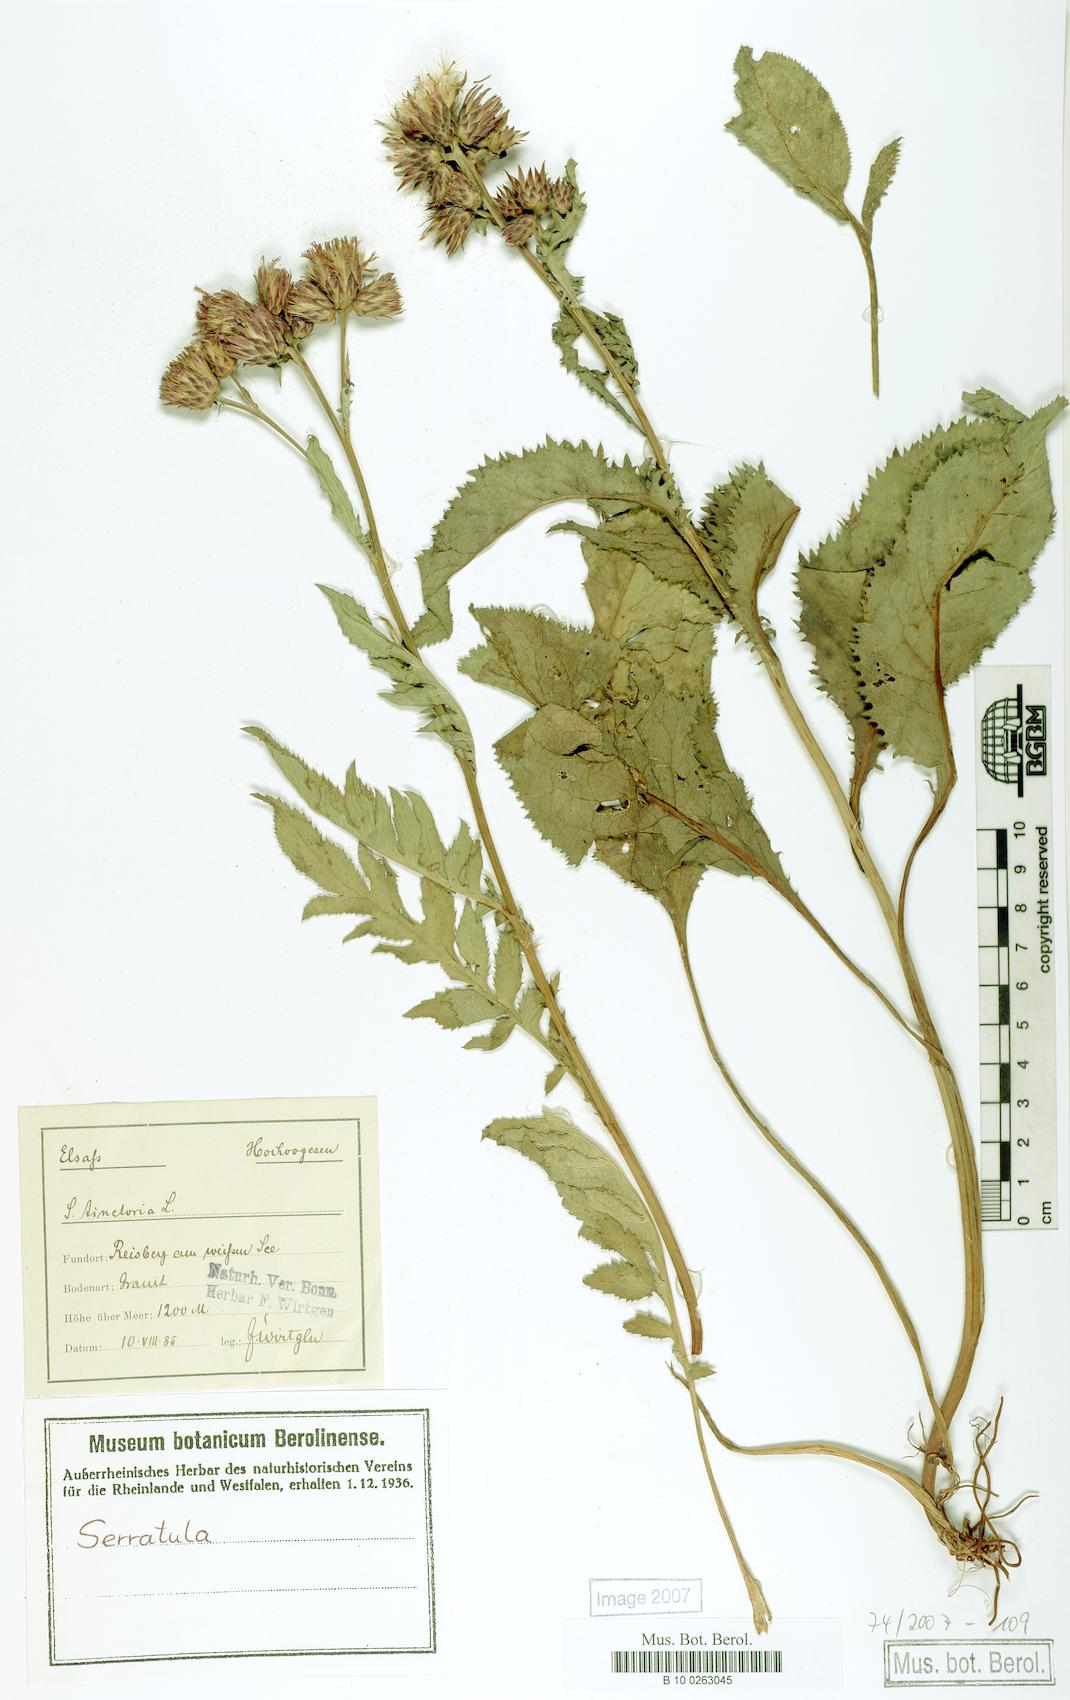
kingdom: Plantae
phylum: Tracheophyta
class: Magnoliopsida
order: Asterales
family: Asteraceae
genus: Serratula
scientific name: Serratula tinctoria
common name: Saw-wort
